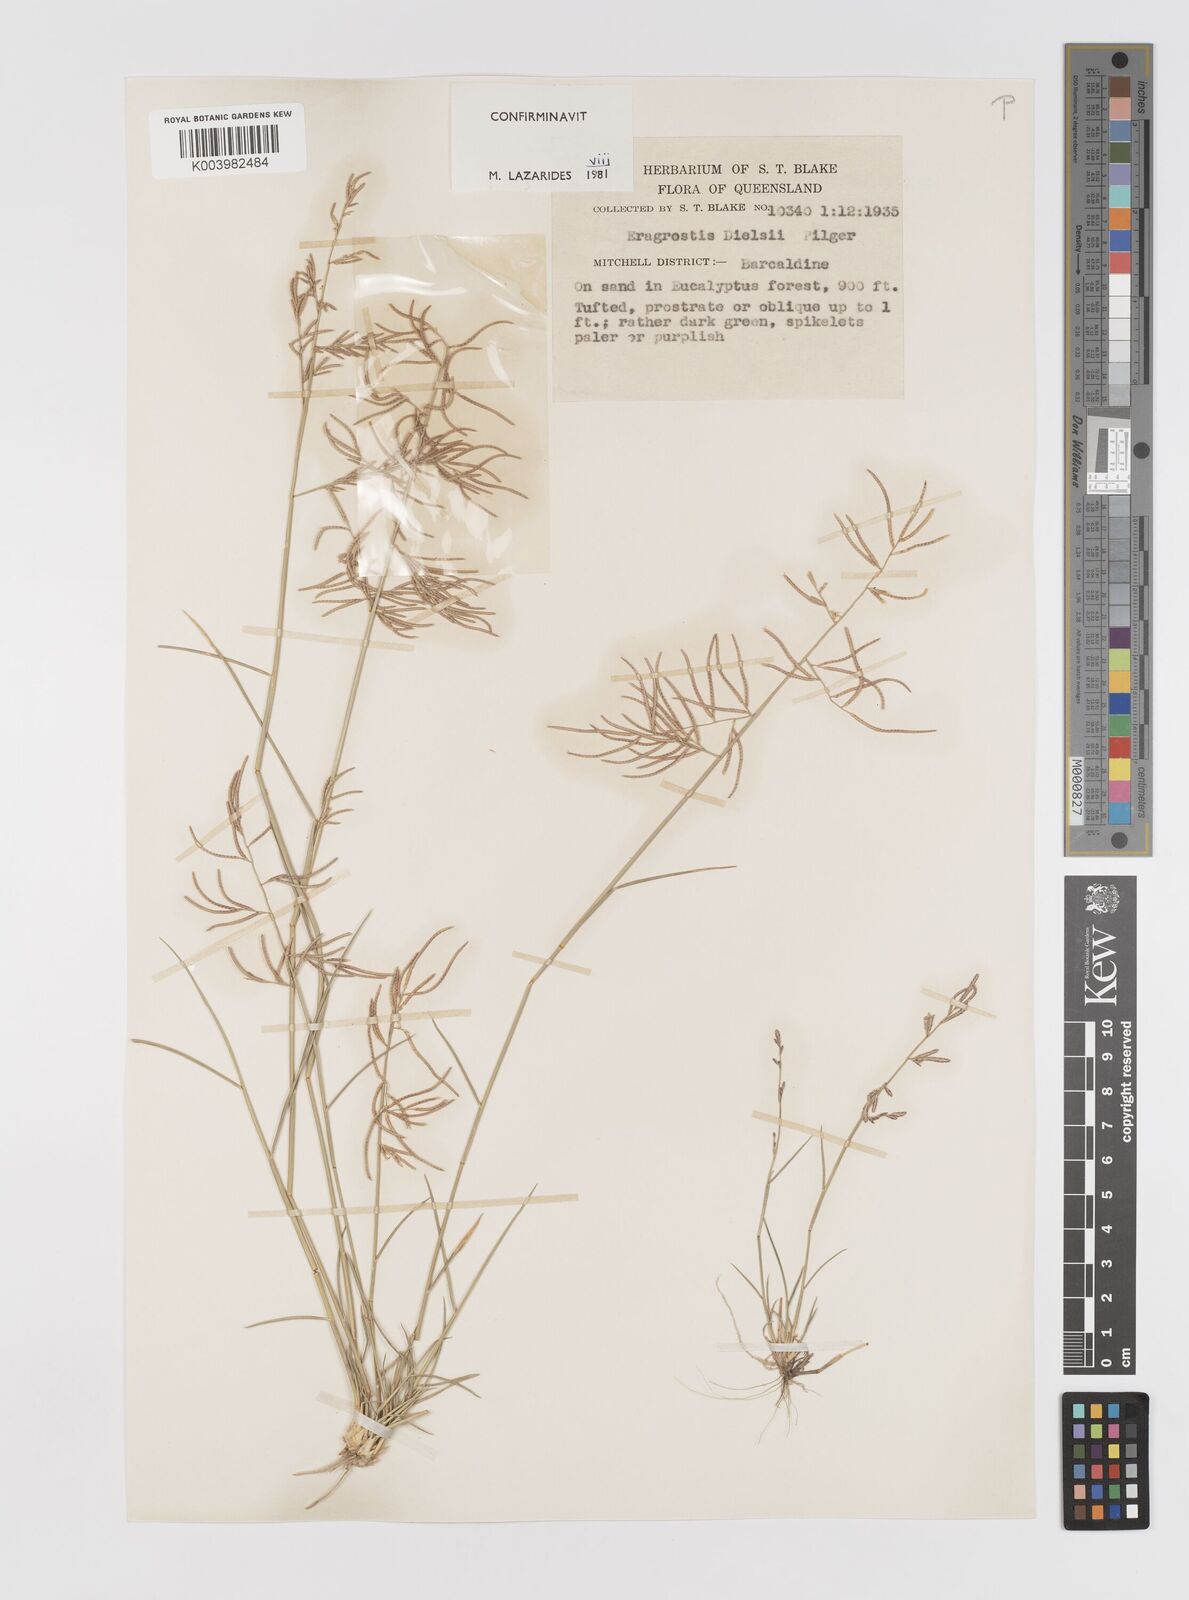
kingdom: Plantae
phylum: Tracheophyta
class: Liliopsida
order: Poales
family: Poaceae
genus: Eragrostis
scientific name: Eragrostis dielsii
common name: Lovegrass
